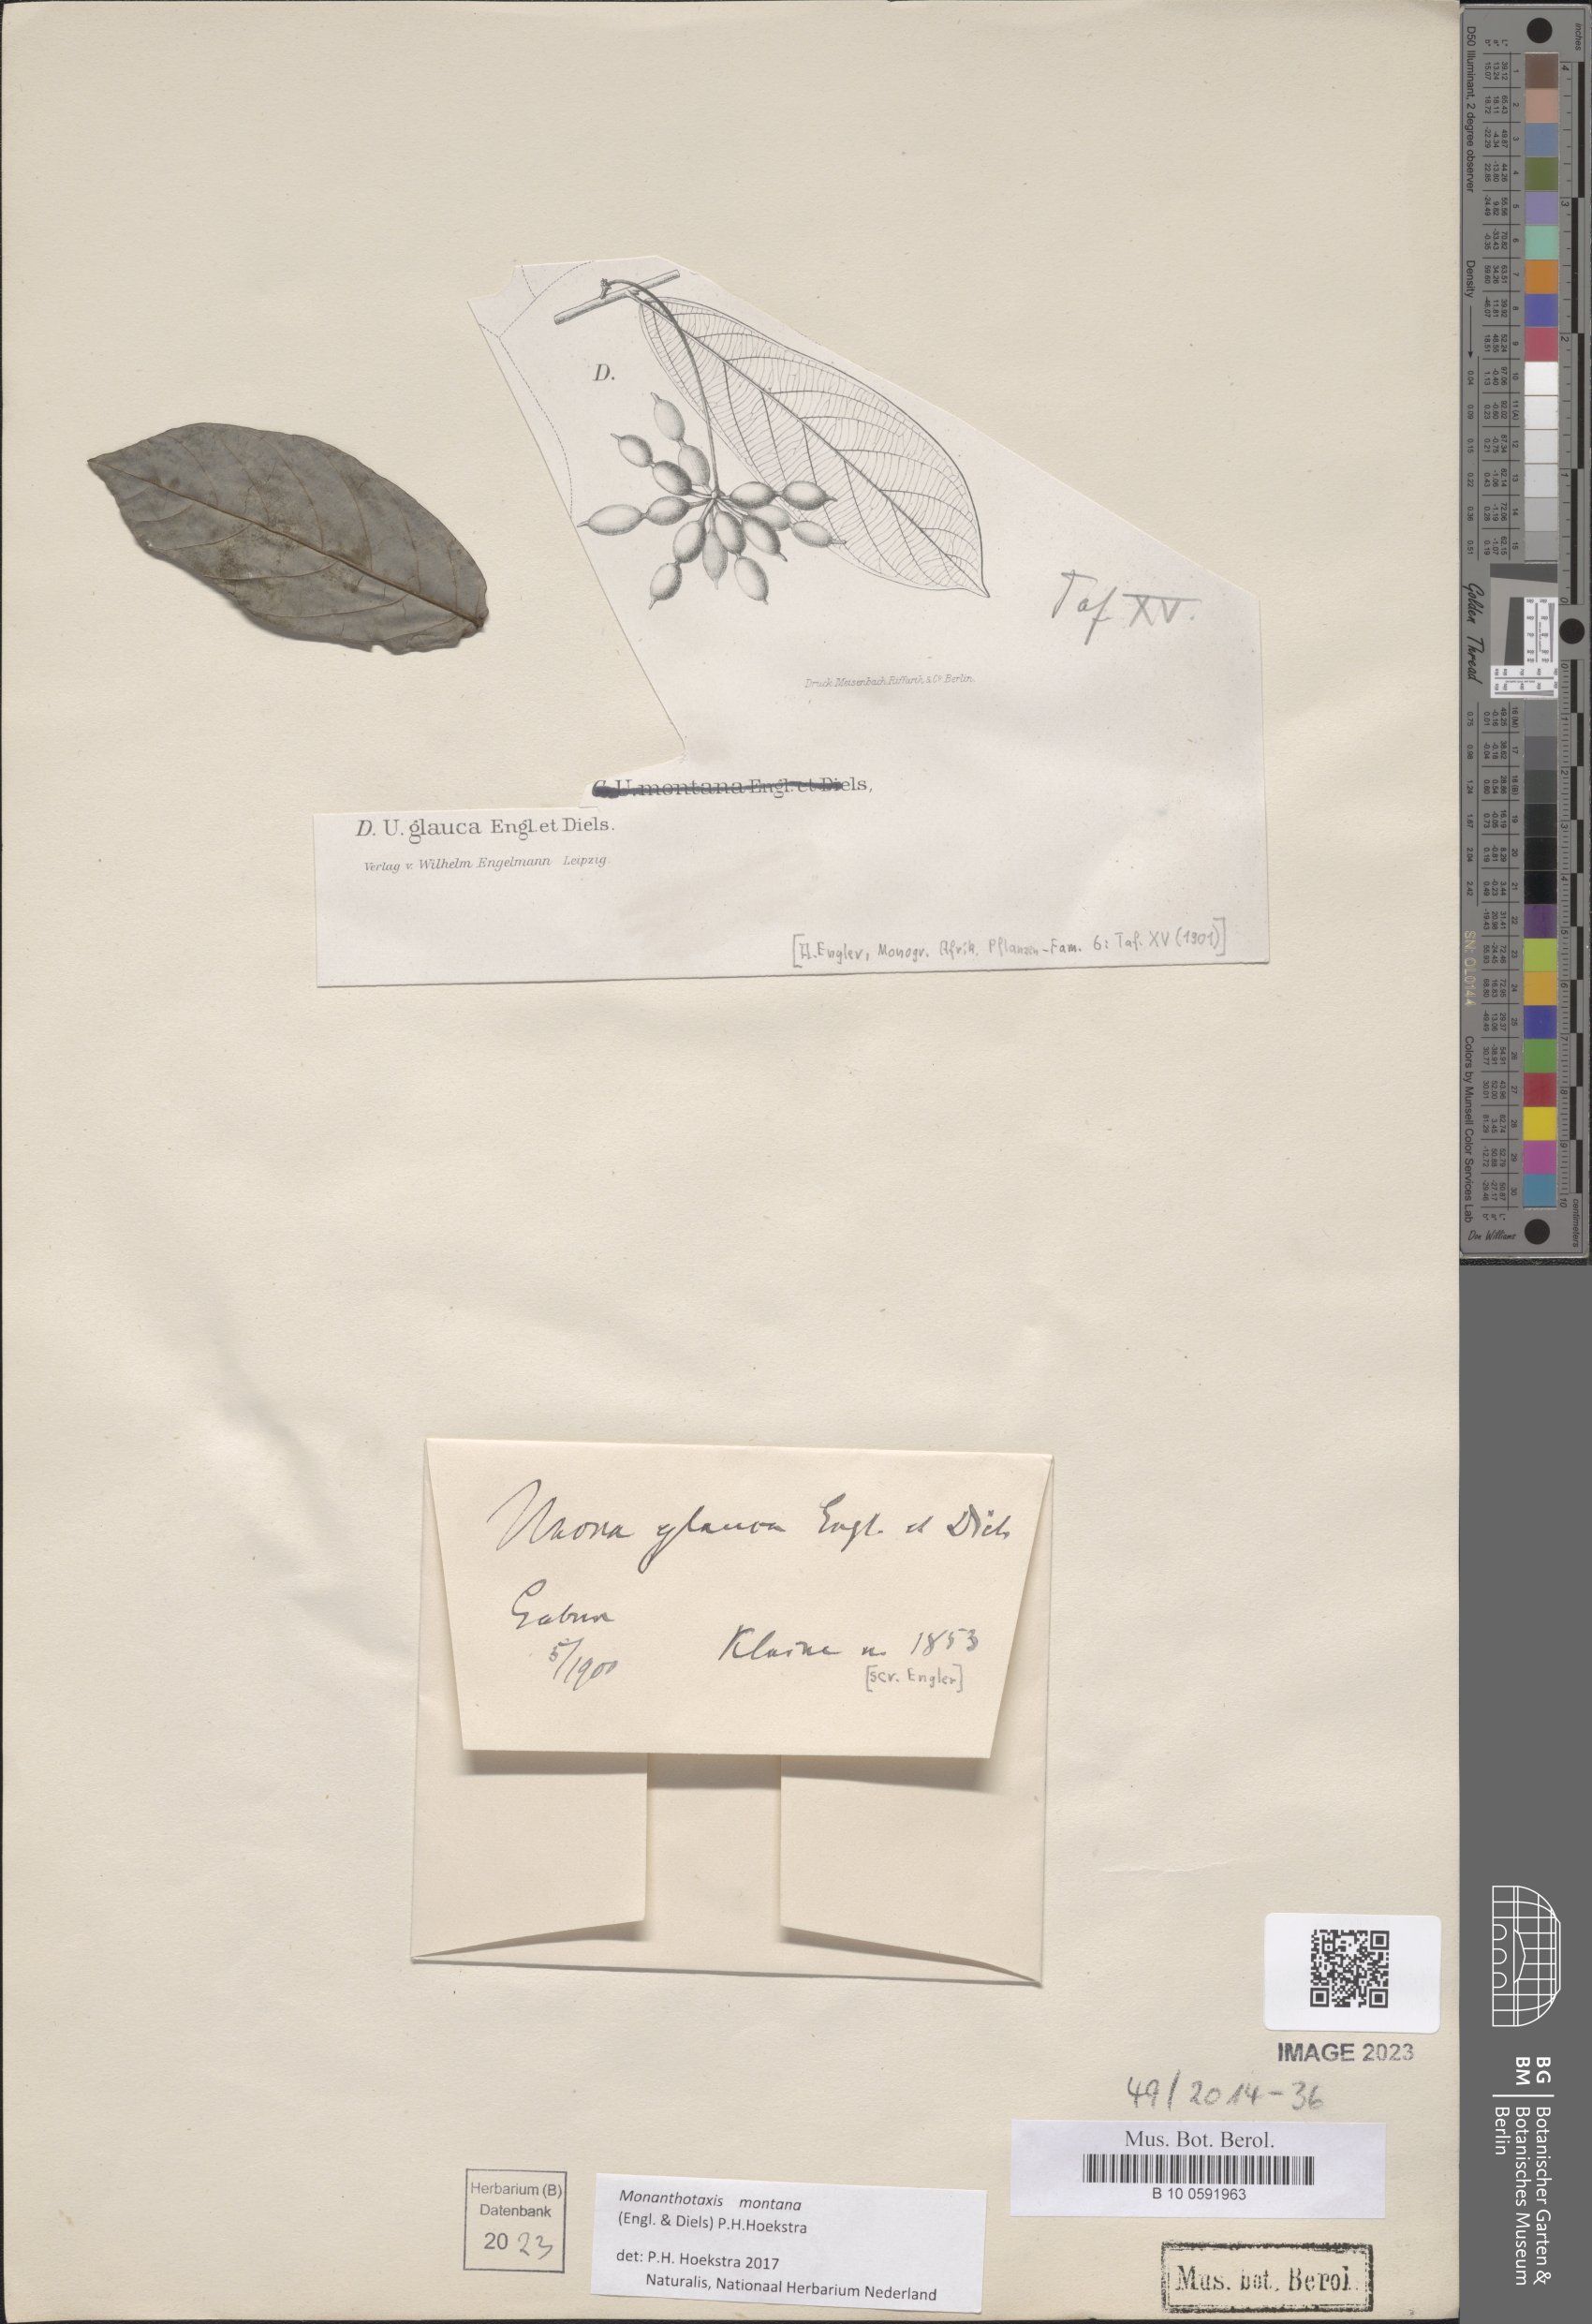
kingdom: Plantae
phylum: Tracheophyta
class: Magnoliopsida
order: Magnoliales
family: Annonaceae
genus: Friesodielsia
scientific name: Friesodielsia montana
